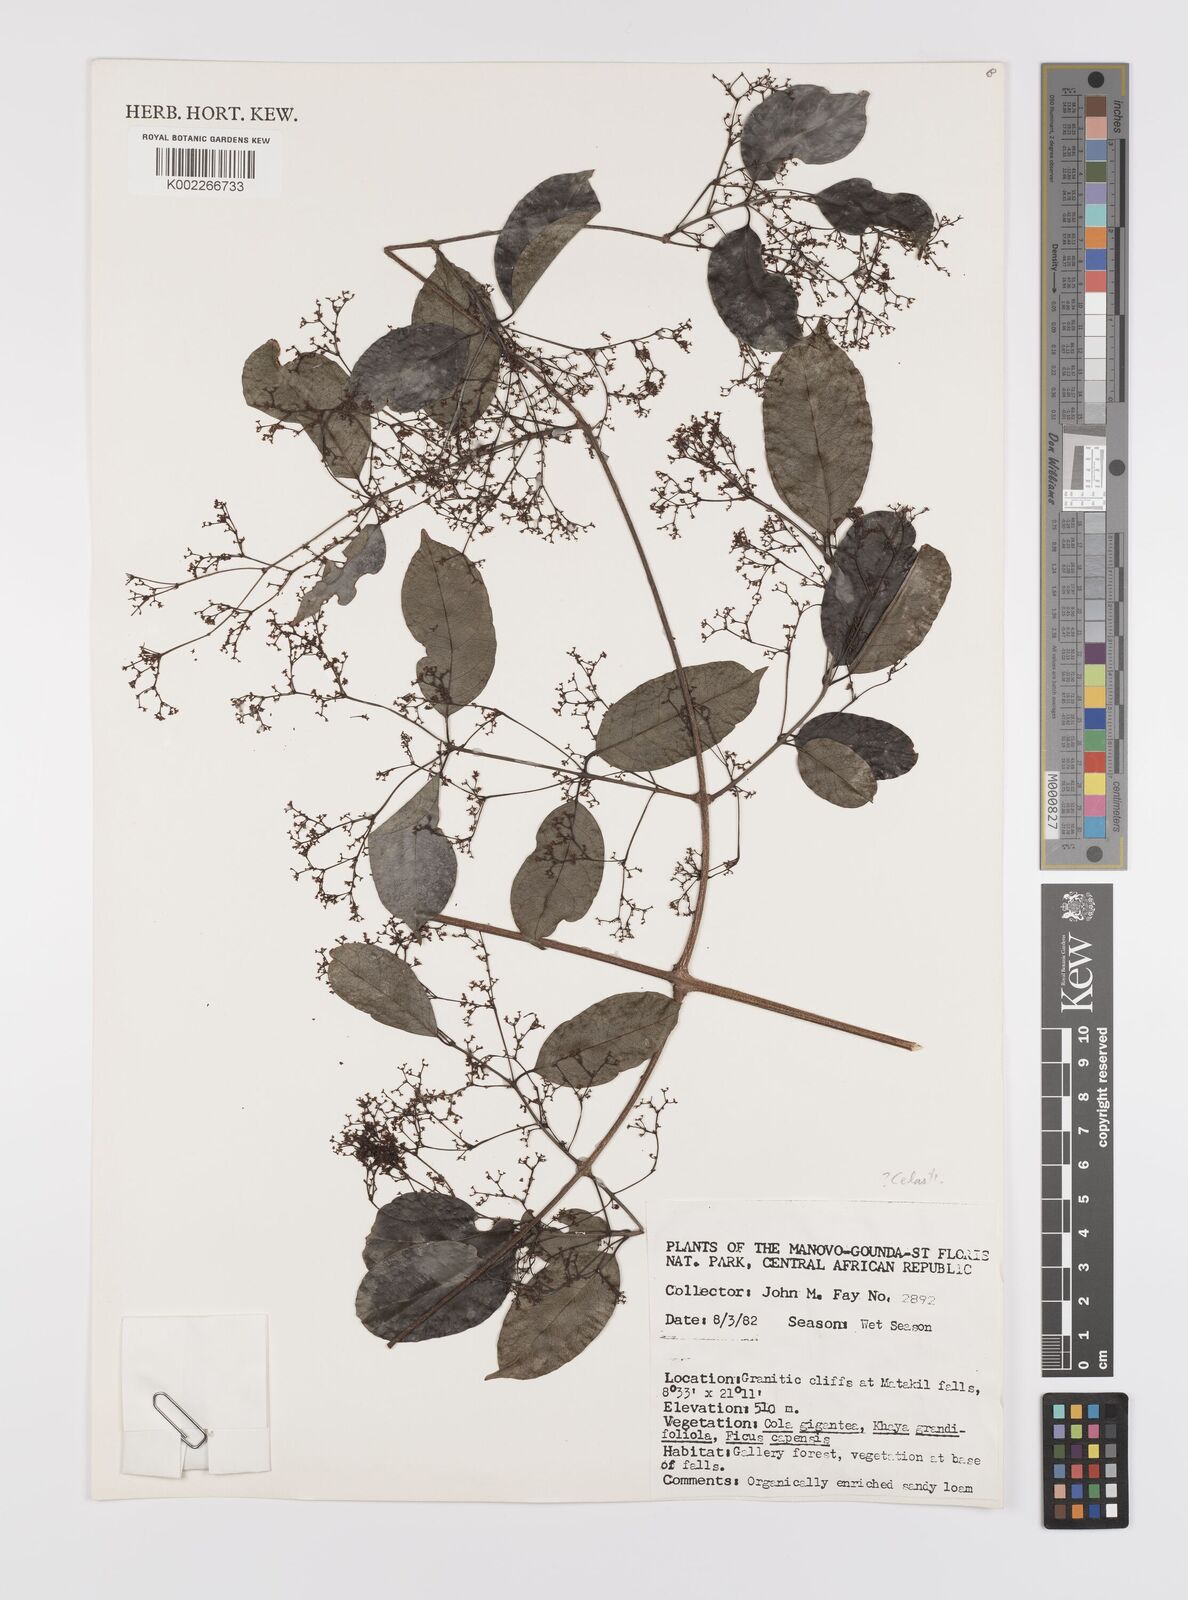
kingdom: Plantae
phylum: Tracheophyta
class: Magnoliopsida
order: Celastrales
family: Celastraceae
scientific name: Celastraceae
